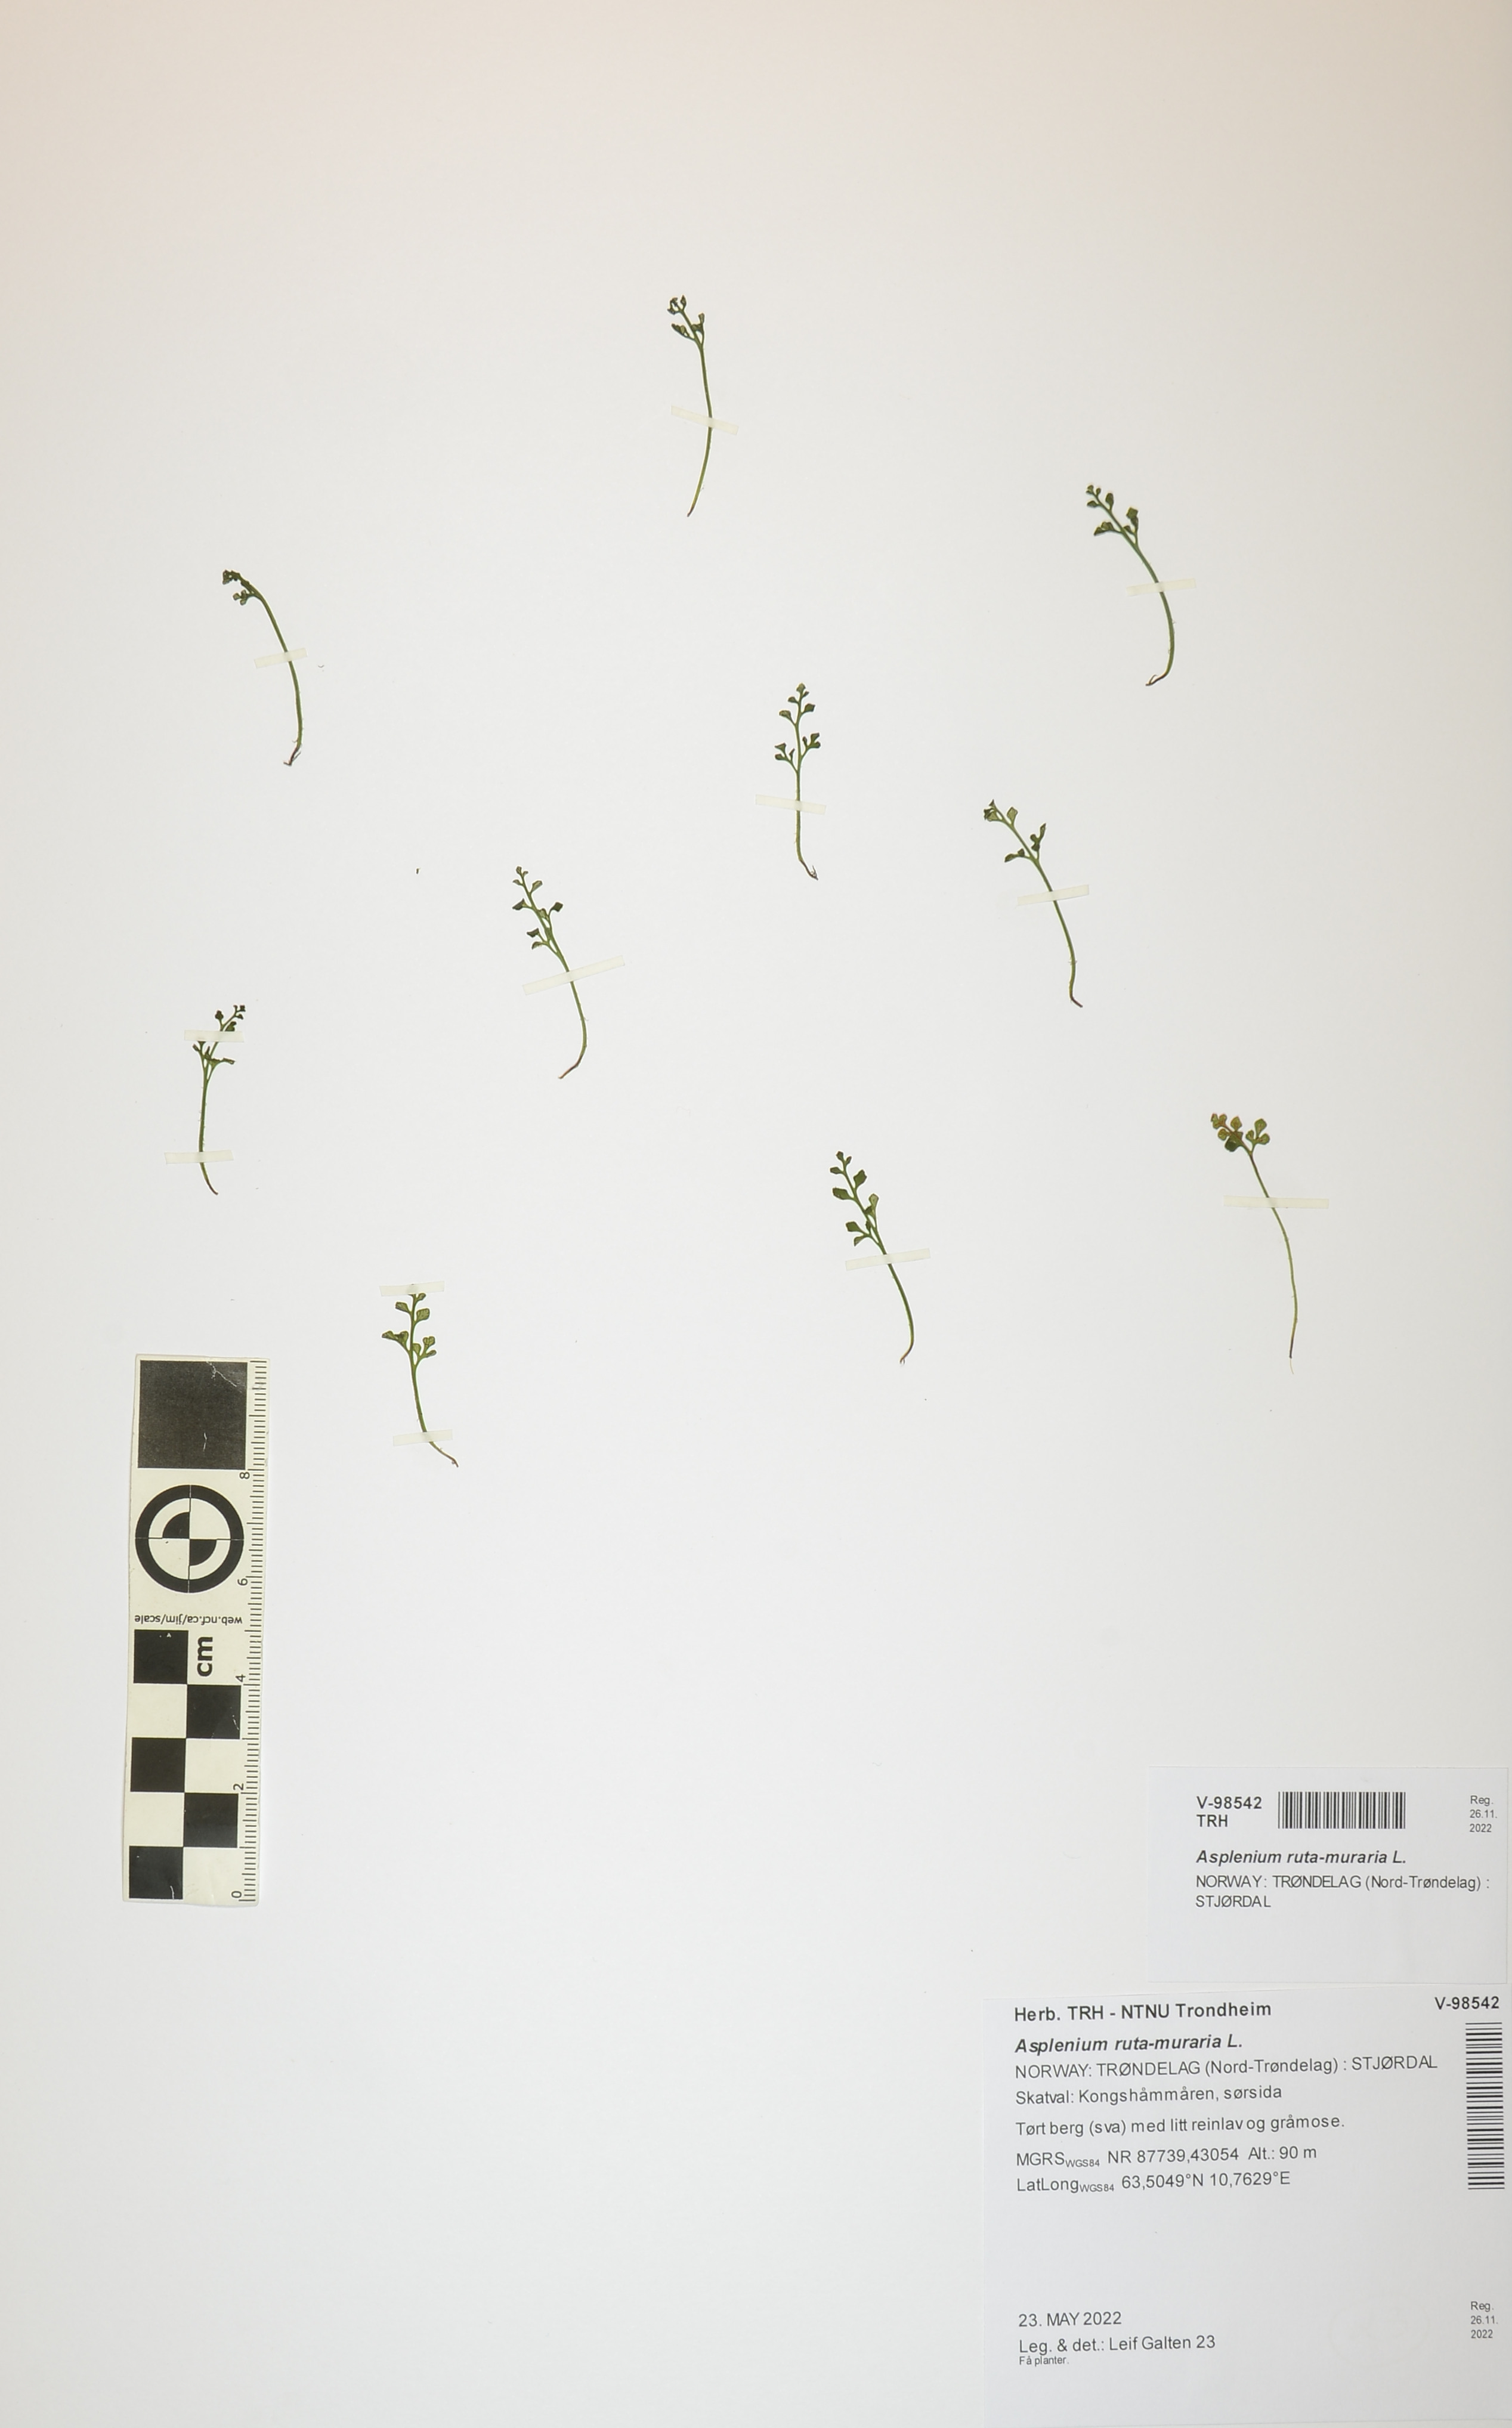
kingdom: Plantae
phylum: Tracheophyta
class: Polypodiopsida
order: Polypodiales
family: Aspleniaceae
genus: Asplenium
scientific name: Asplenium ruta-muraria
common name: Wall-rue
